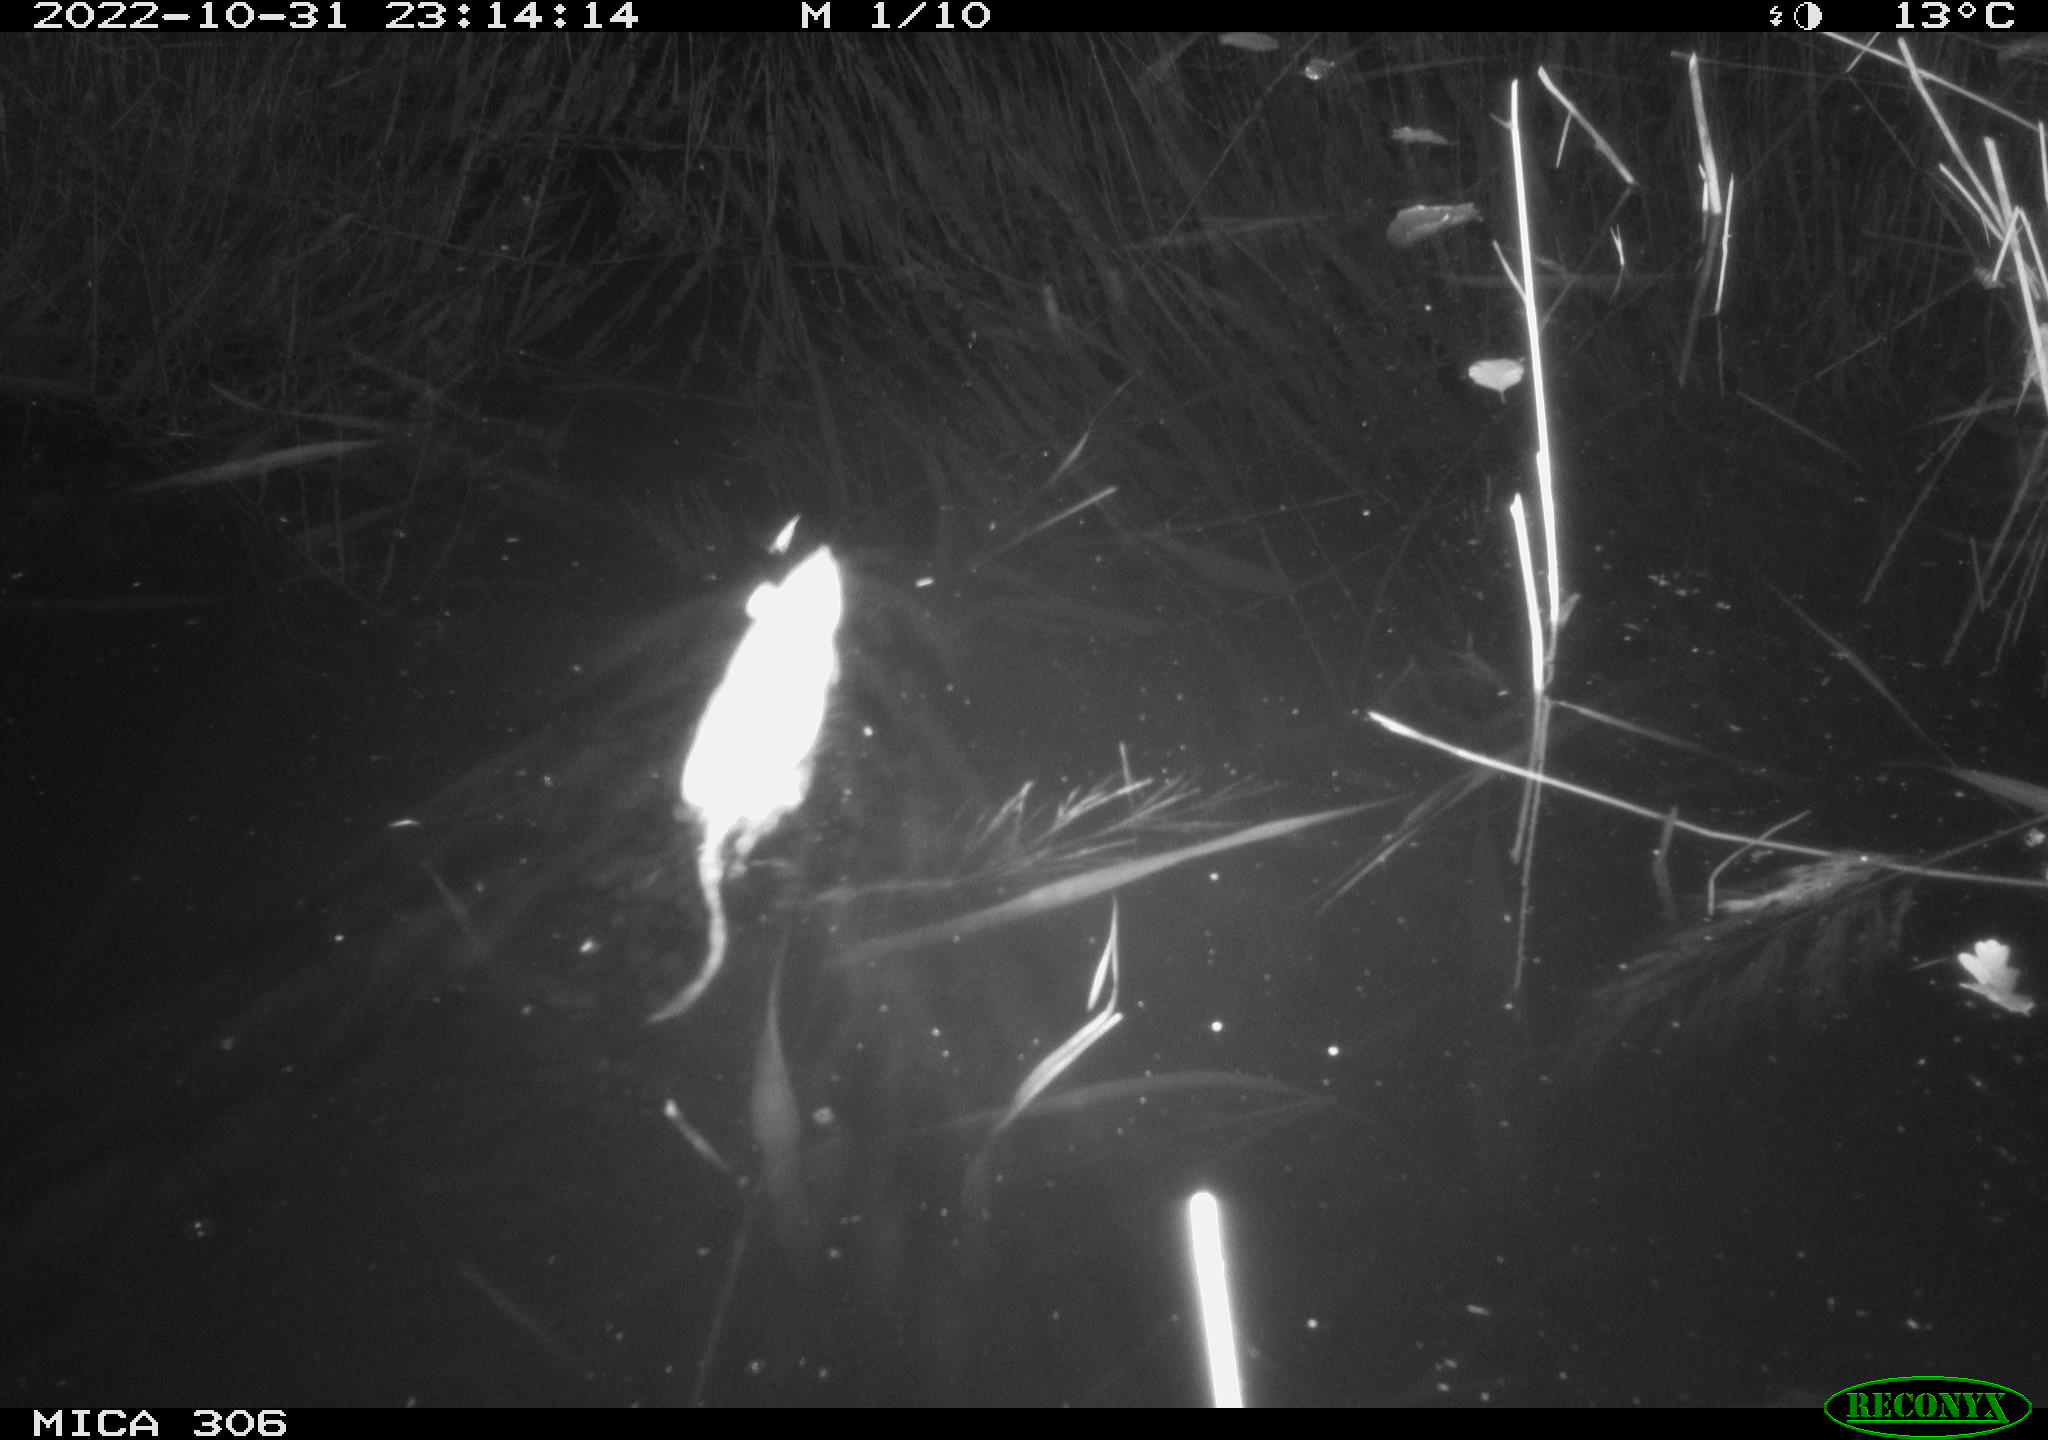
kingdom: Animalia
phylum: Chordata
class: Mammalia
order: Rodentia
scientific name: Rodentia
